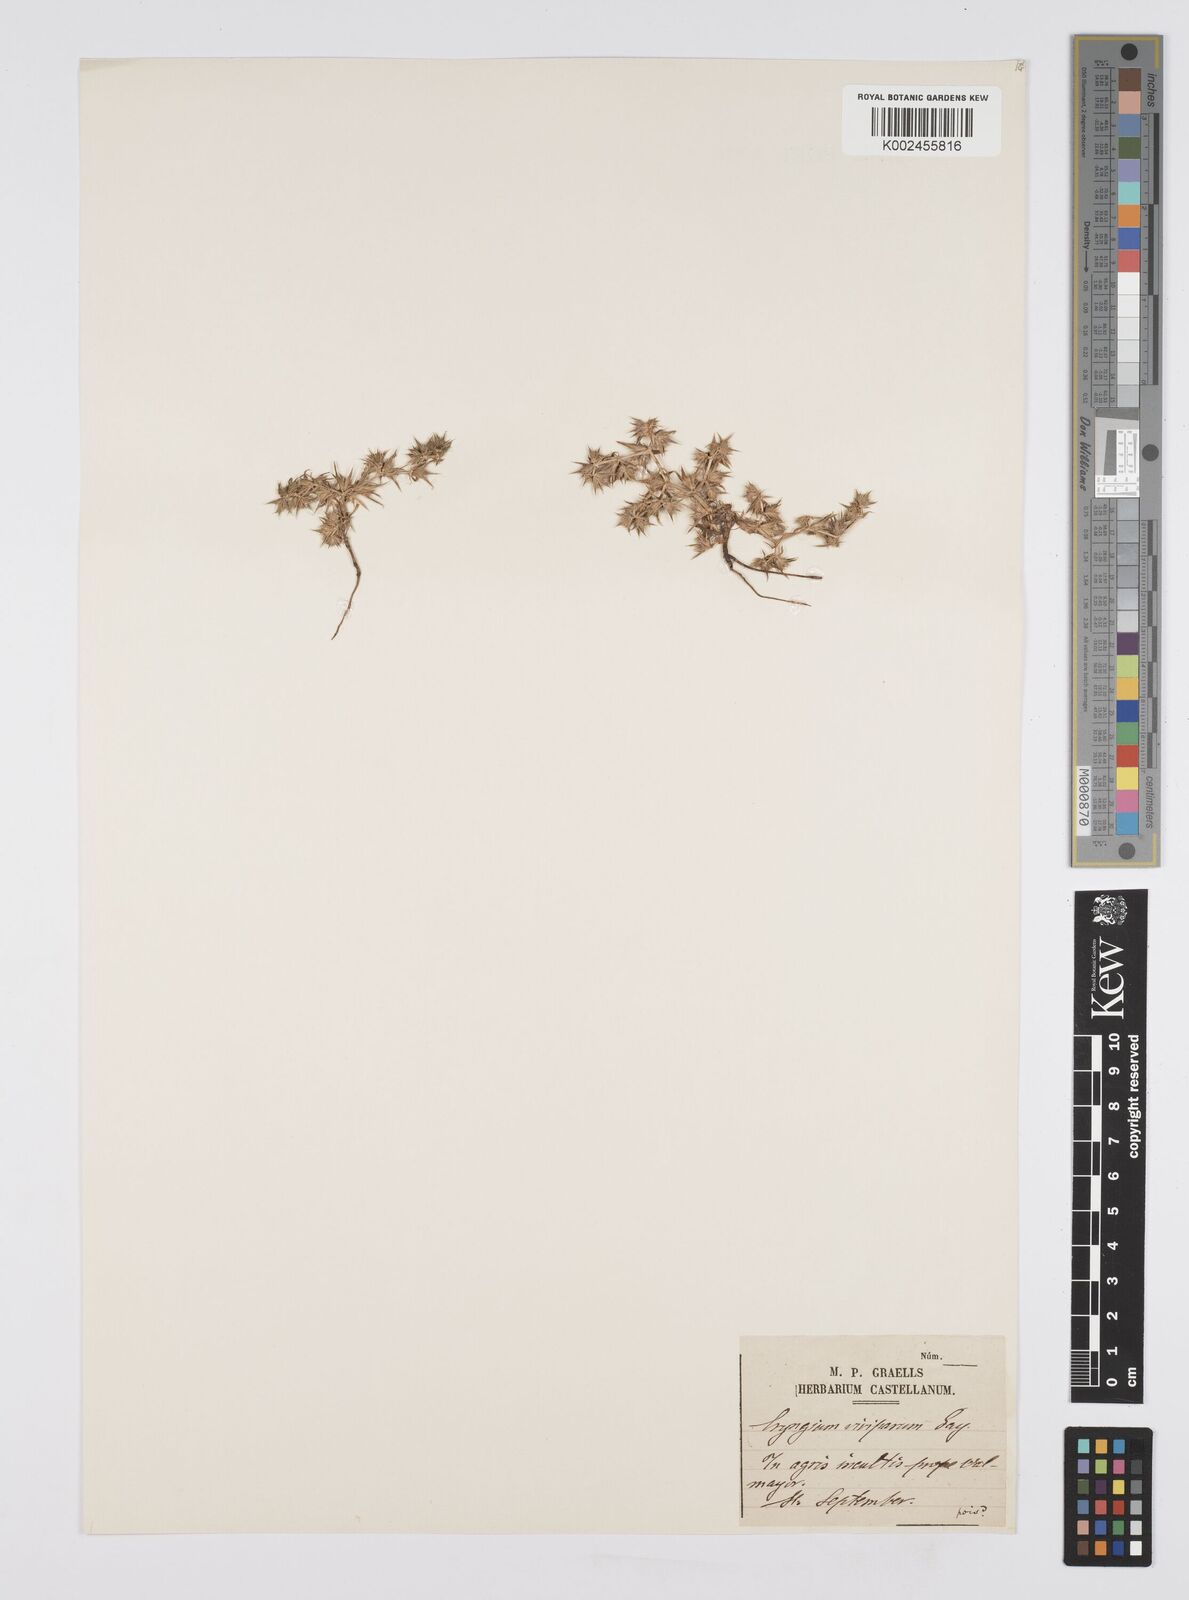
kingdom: Plantae
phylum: Tracheophyta
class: Magnoliopsida
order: Apiales
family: Apiaceae
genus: Eryngium
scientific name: Eryngium viviparum
